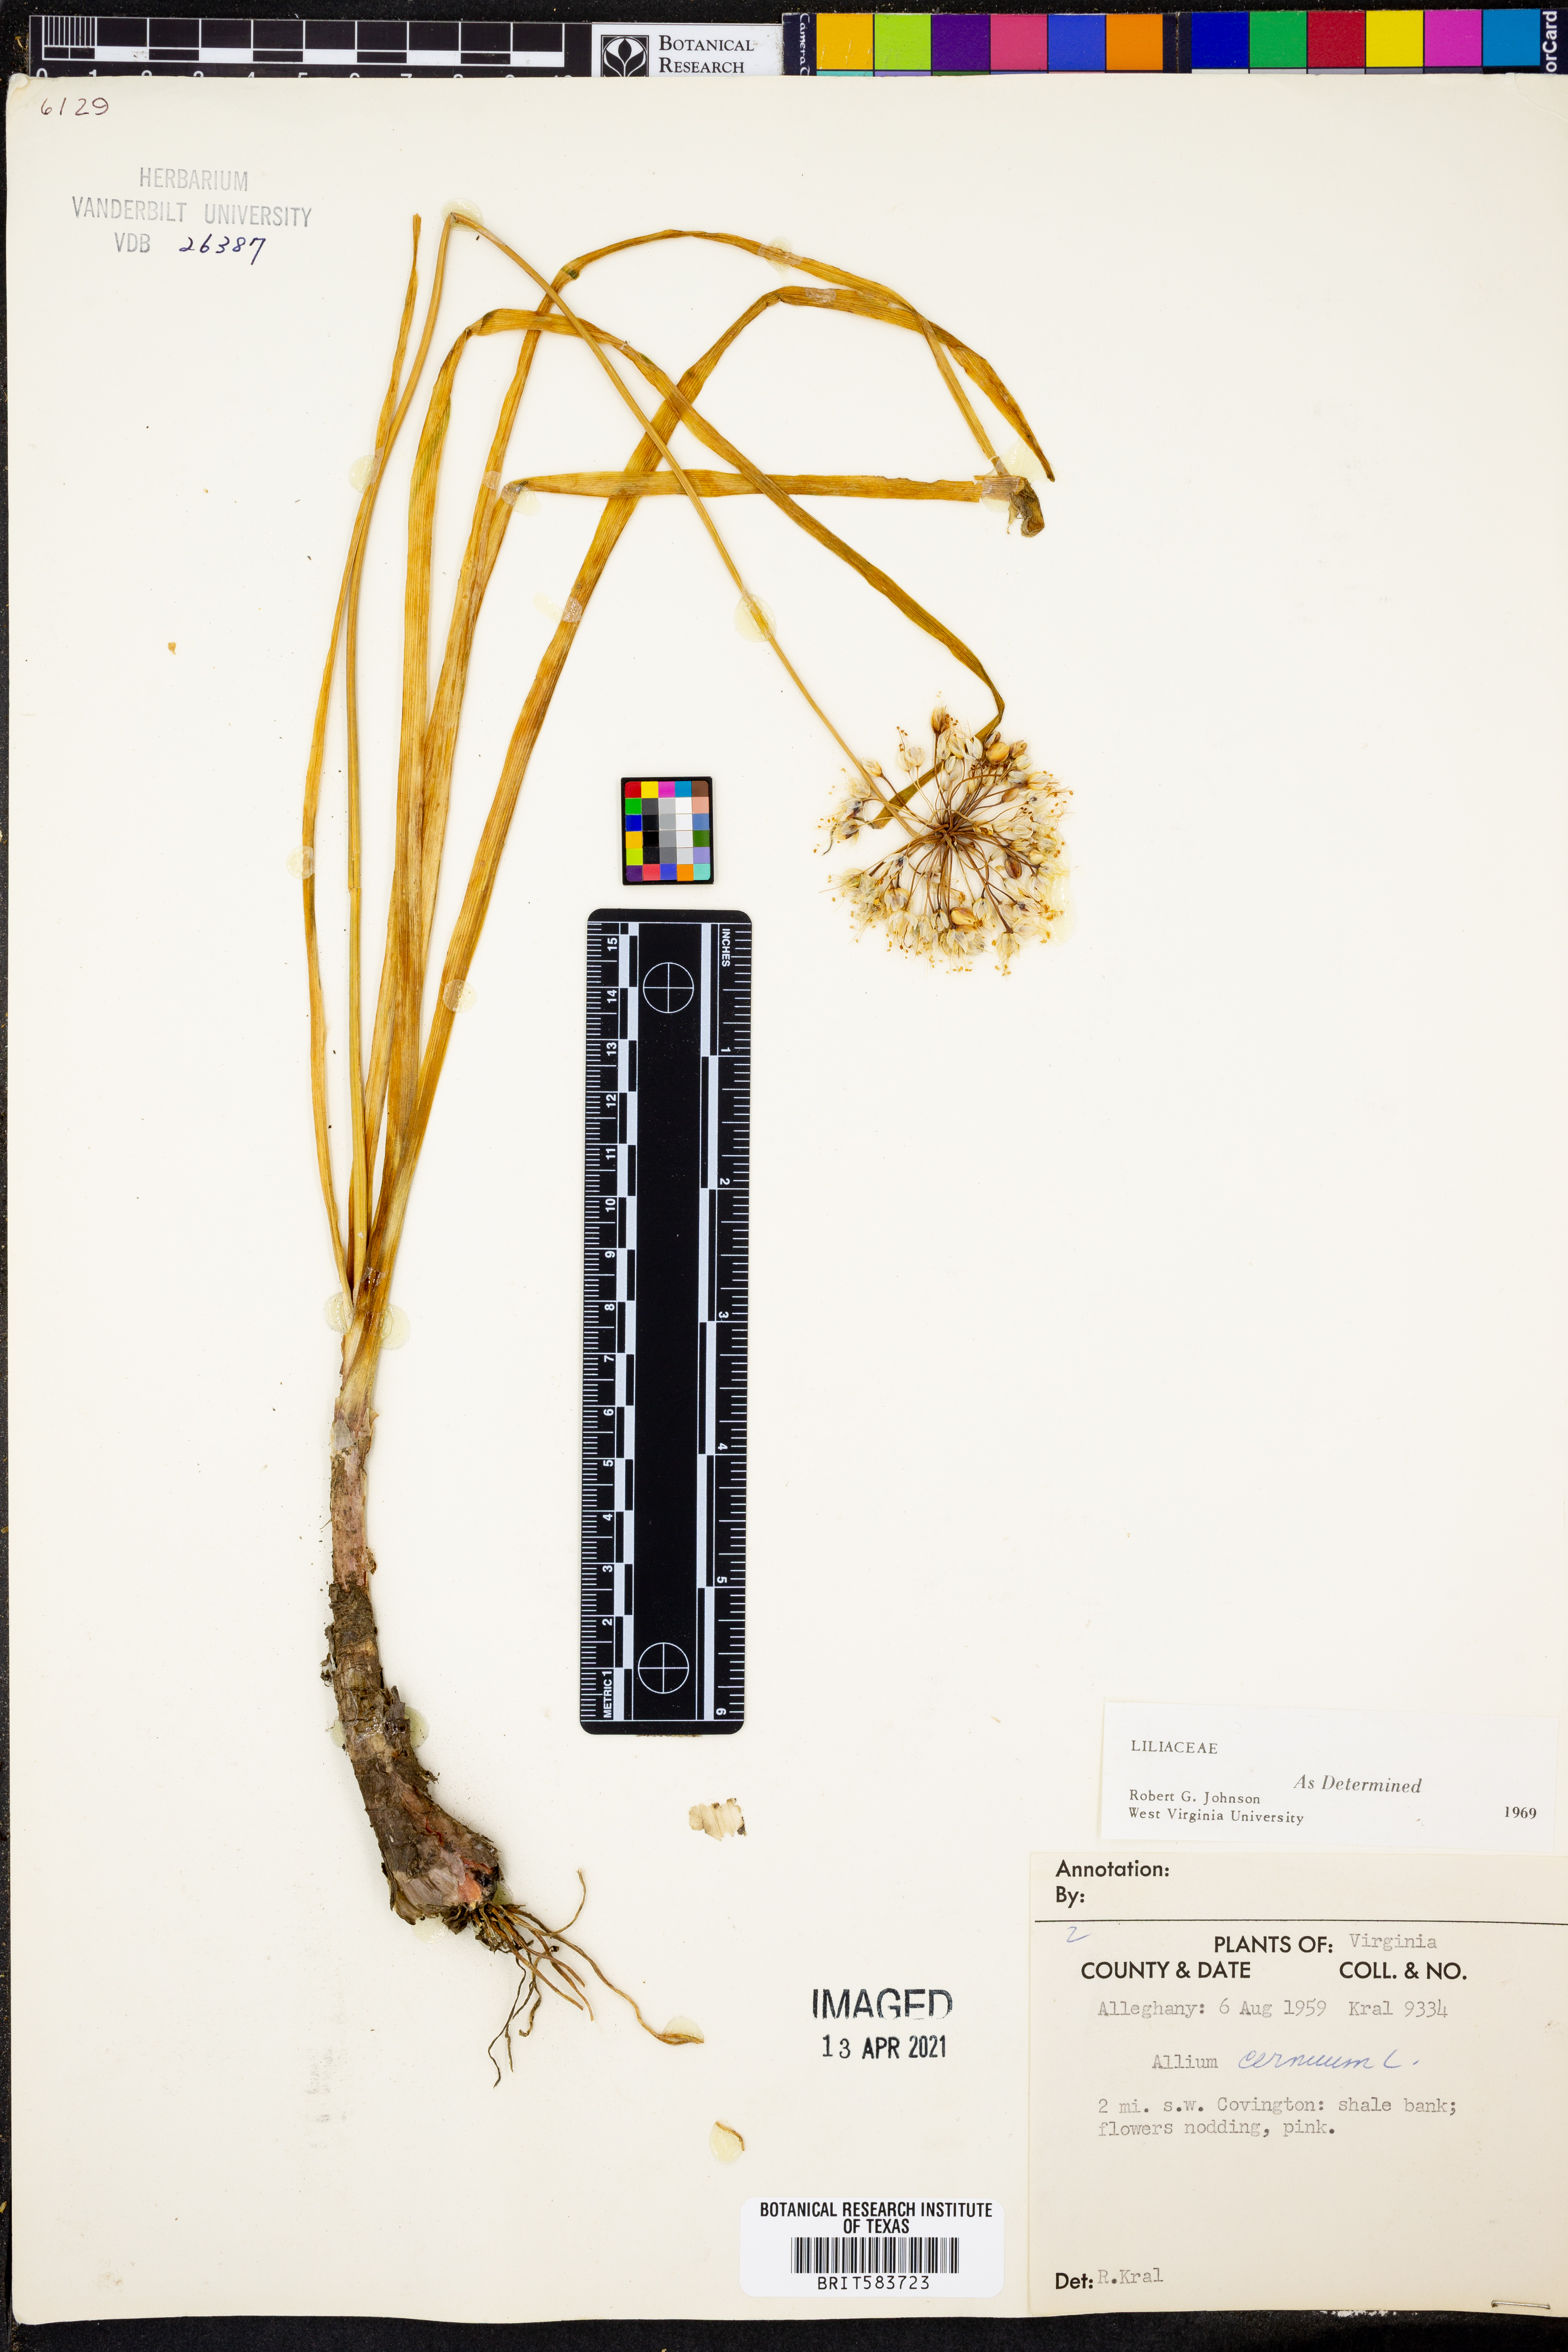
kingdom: Plantae
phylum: Tracheophyta
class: Liliopsida
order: Asparagales
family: Amaryllidaceae
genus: Allium
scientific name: Allium cernuum
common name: Nodding onion
